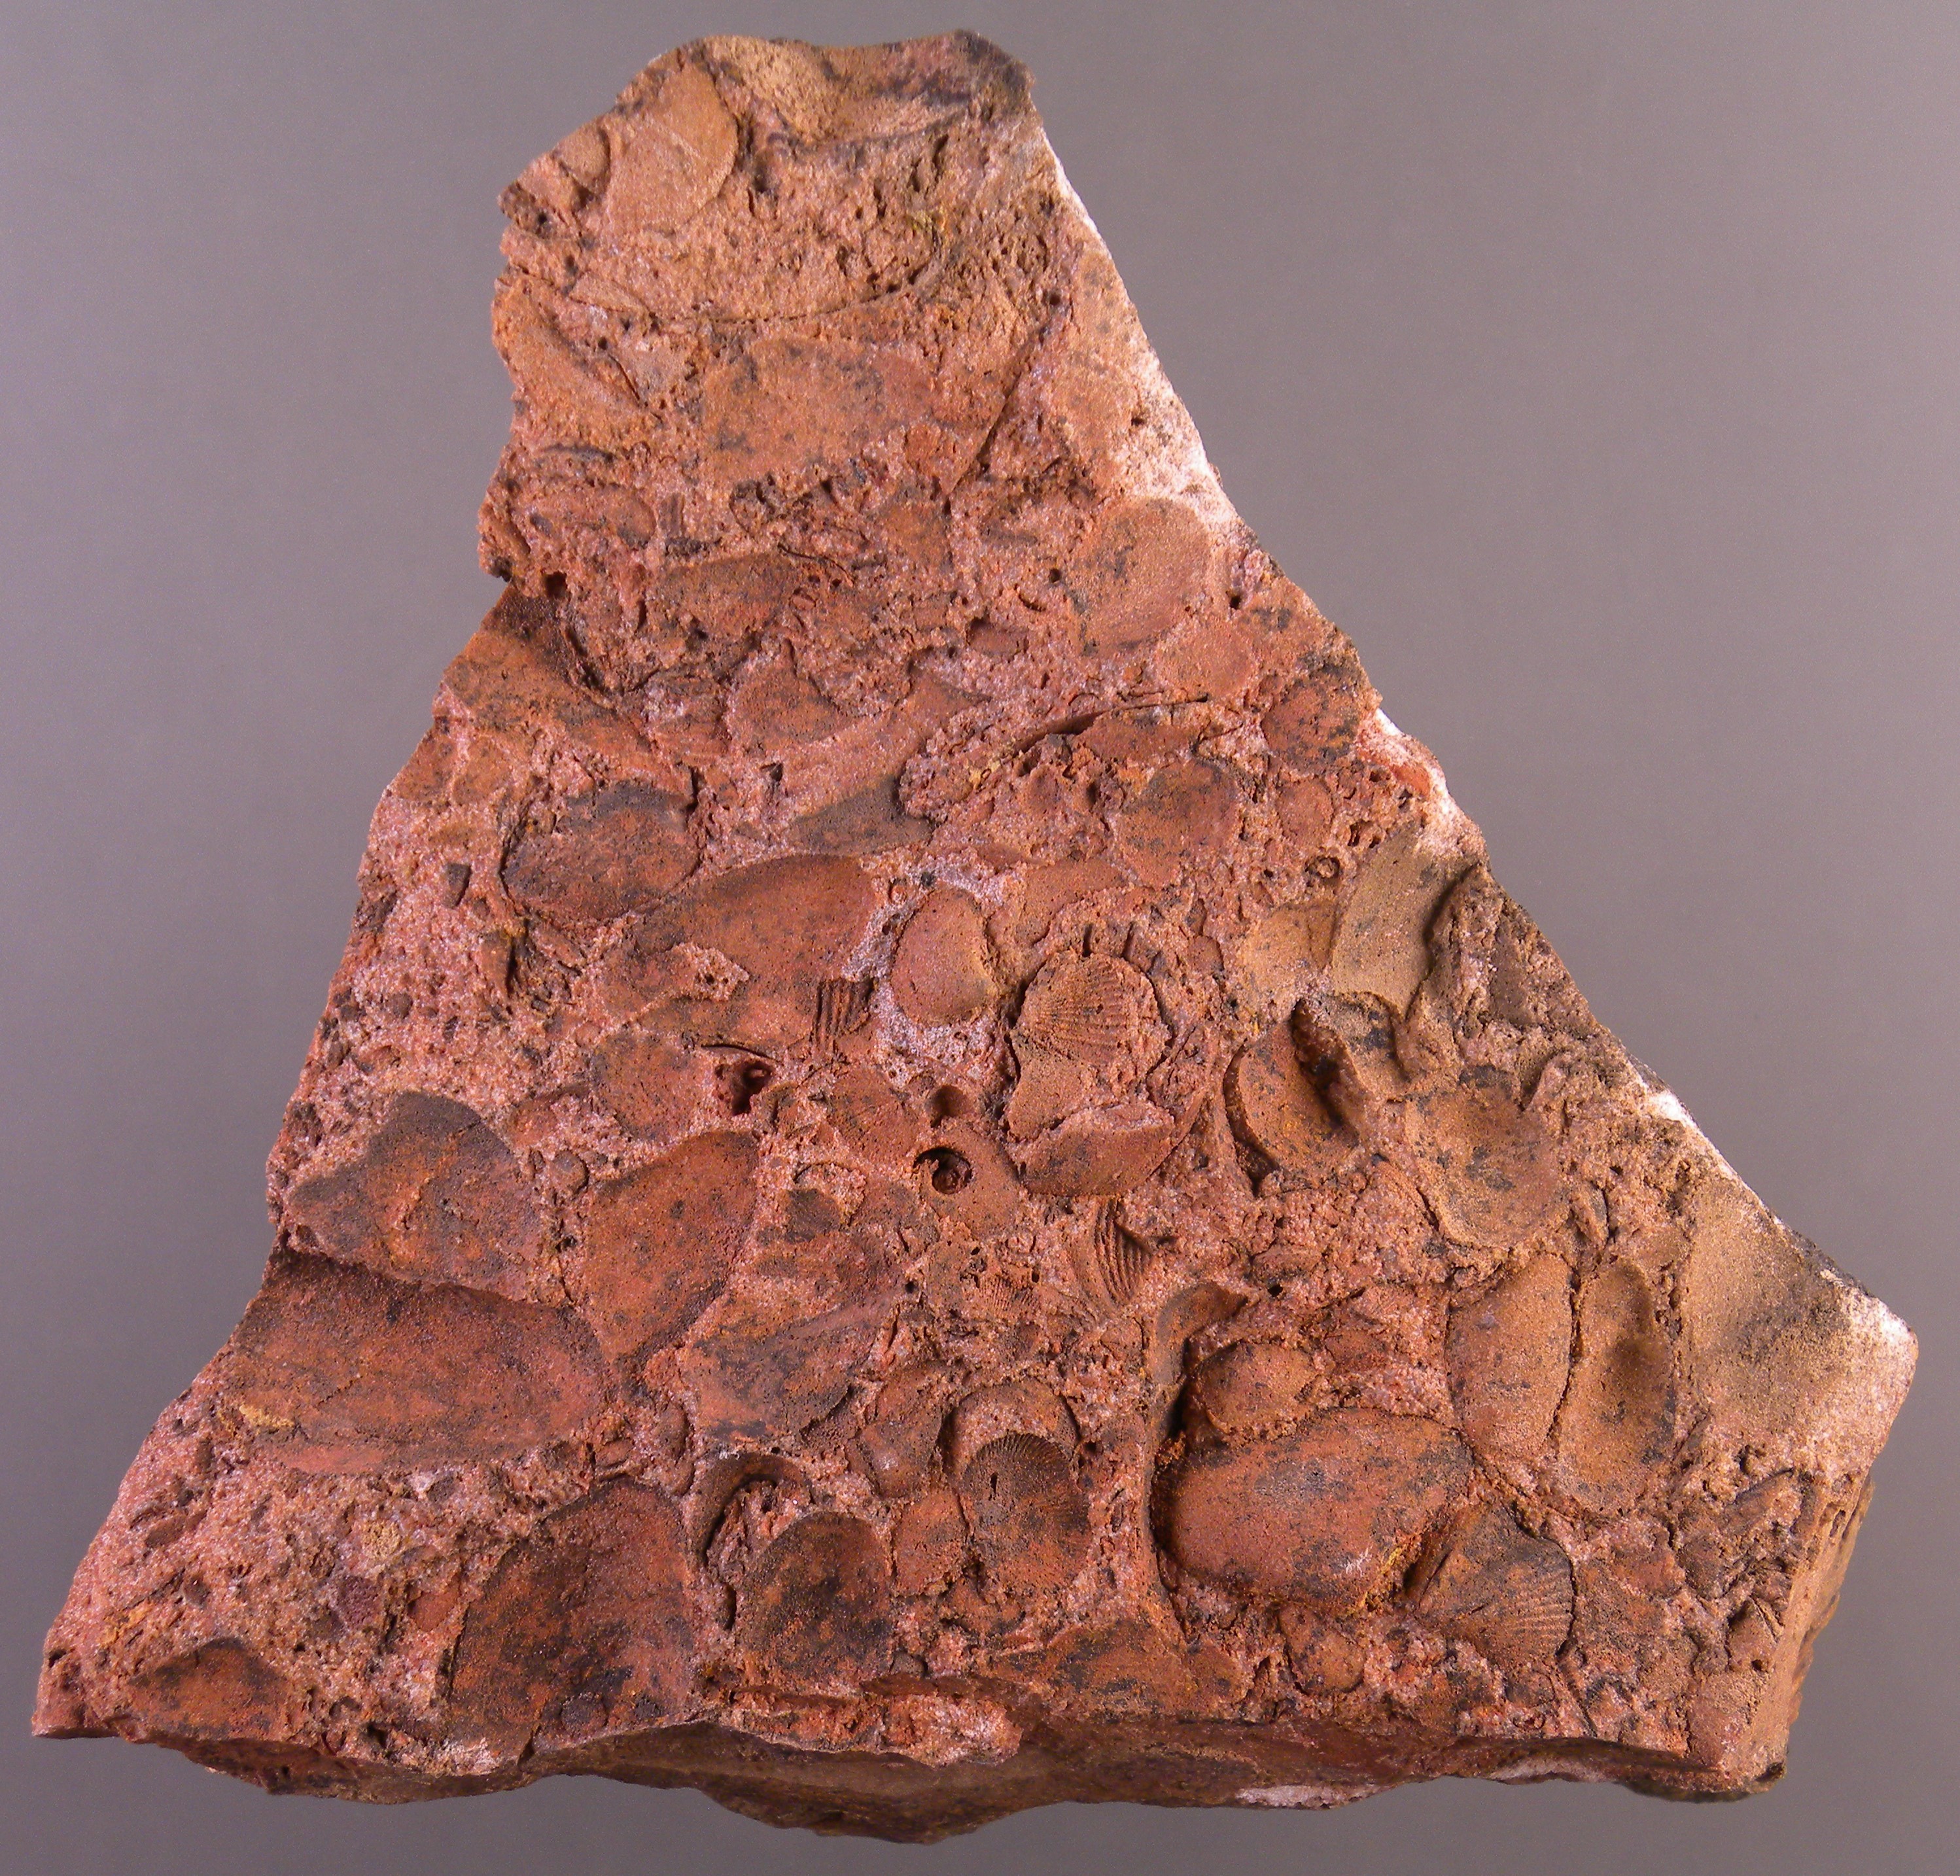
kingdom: Animalia
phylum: Mollusca
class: Bivalvia
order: Nuculida
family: Nuculidae
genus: Nuculoidea
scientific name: Nuculoidea
